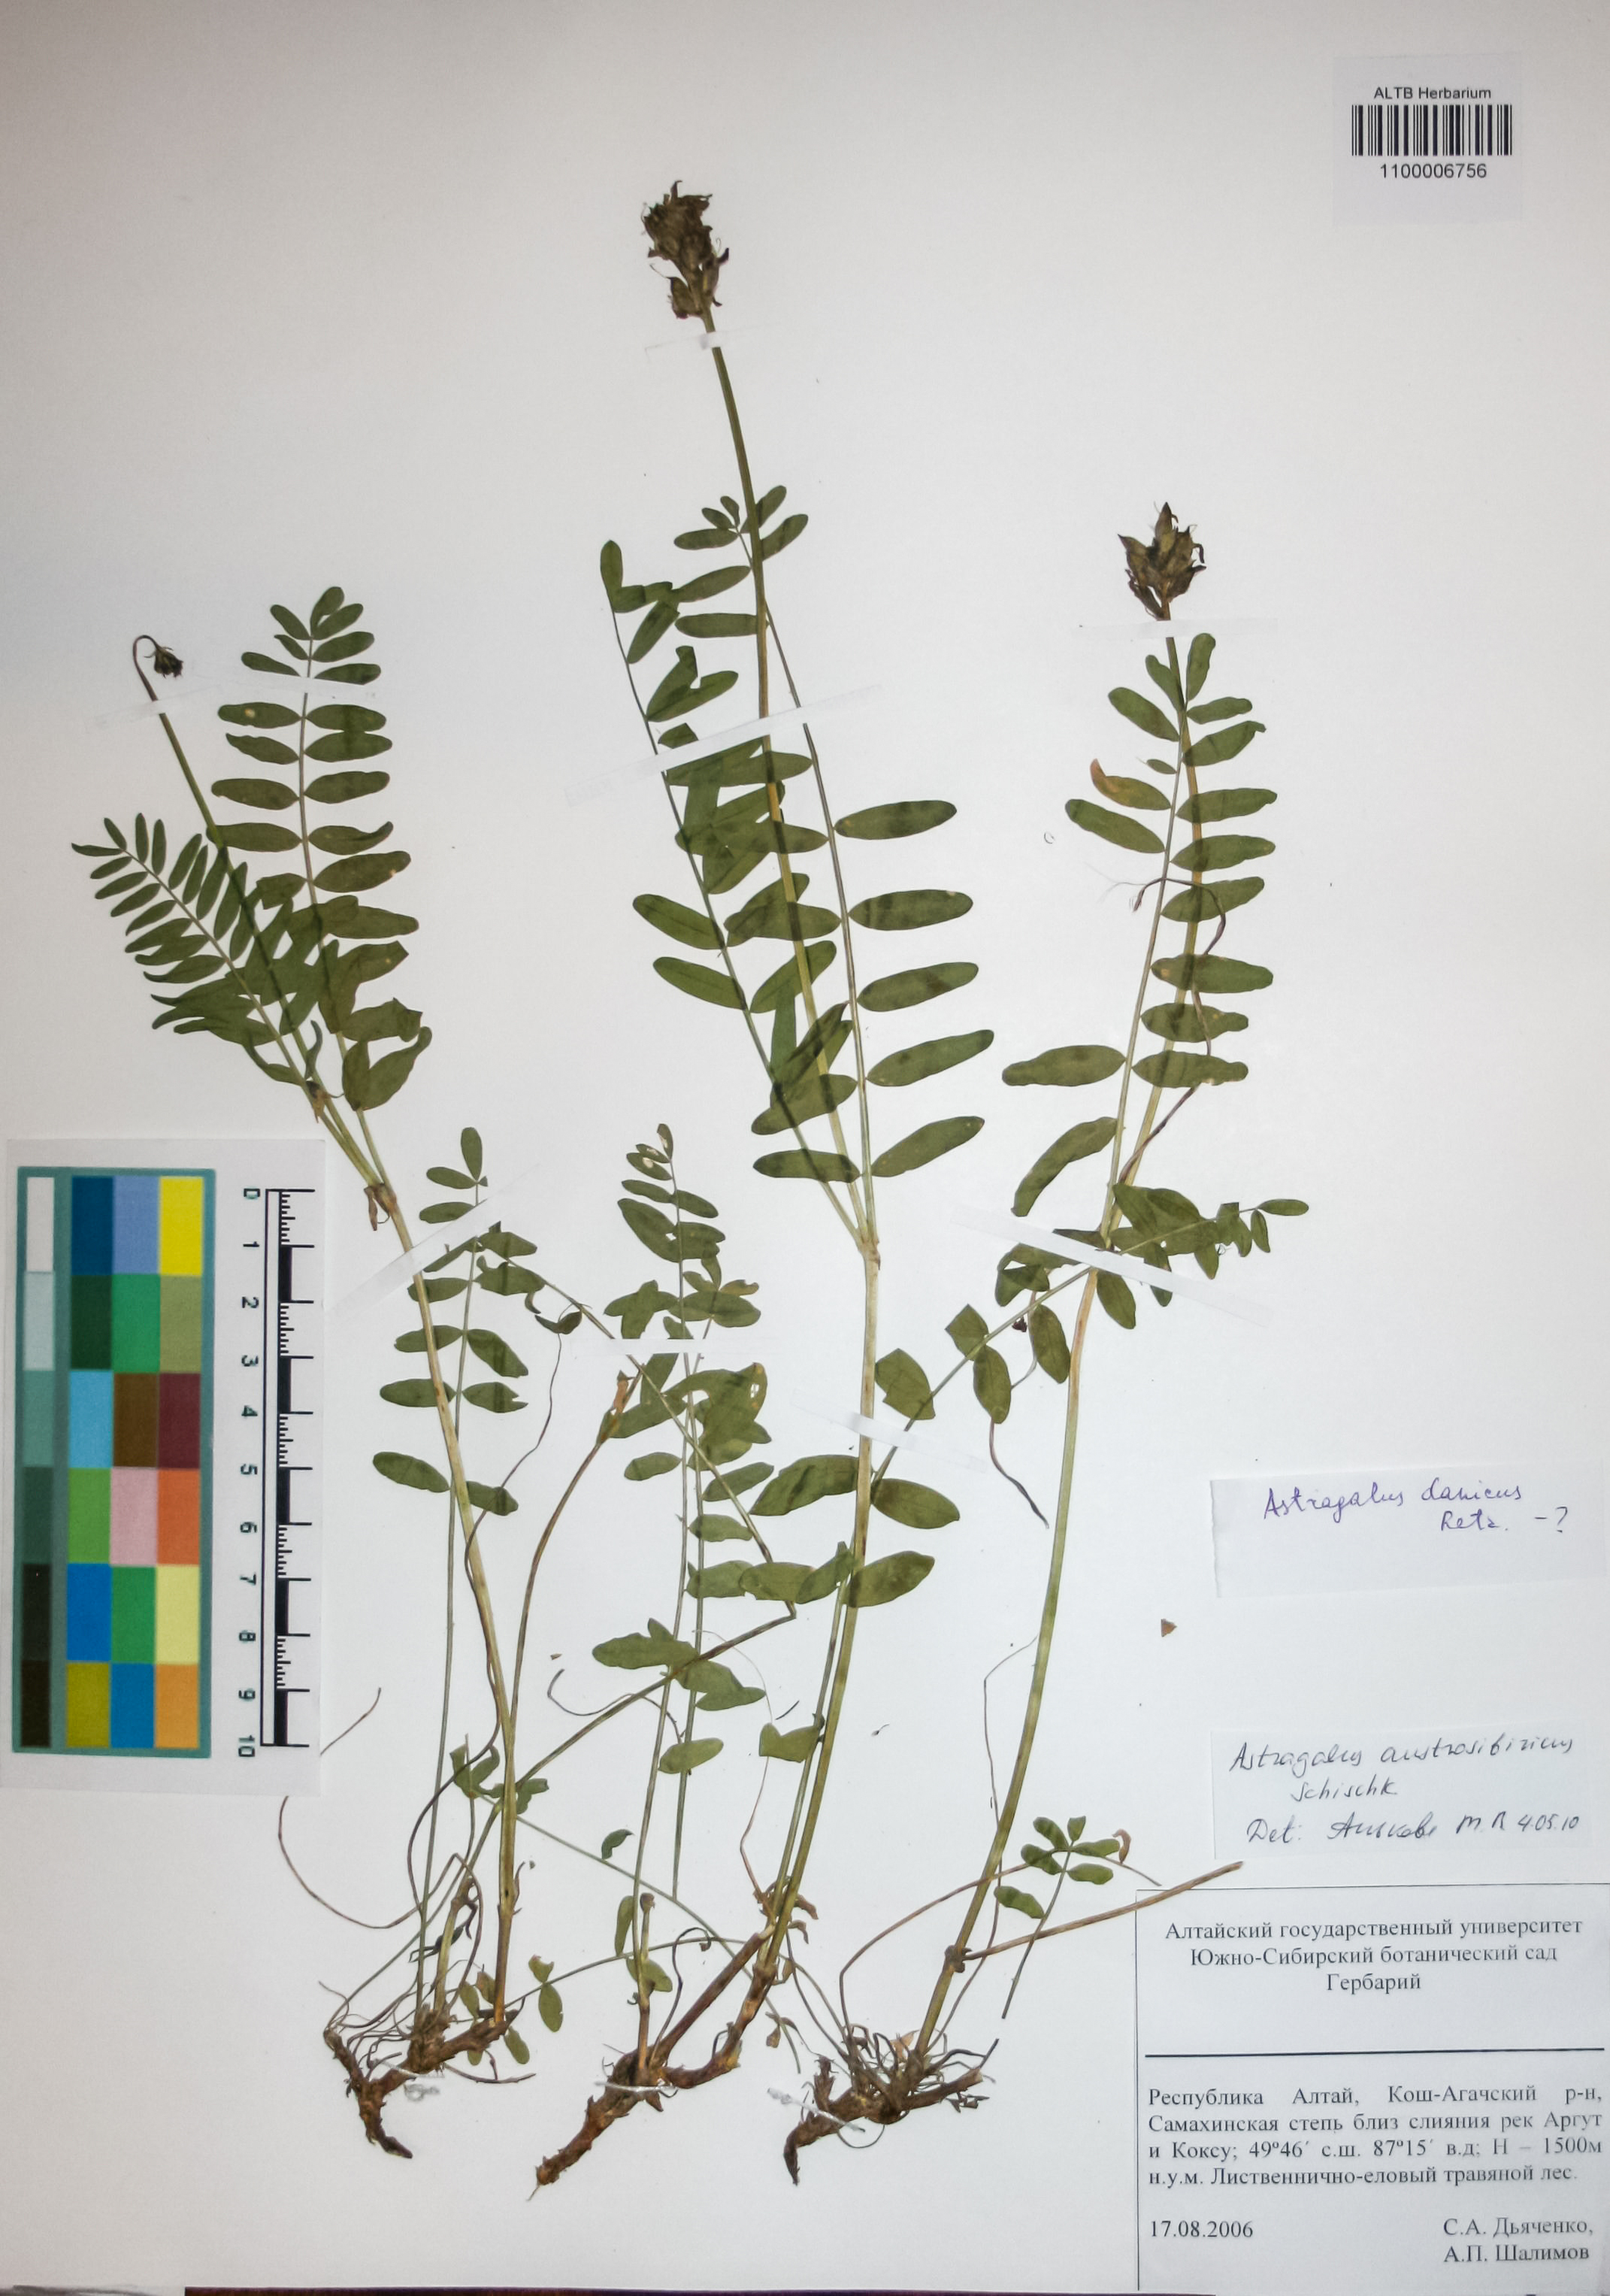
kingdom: Plantae
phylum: Tracheophyta
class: Magnoliopsida
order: Fabales
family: Fabaceae
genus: Astragalus
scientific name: Astragalus laxmannii
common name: Laxmann's milk-vetch
